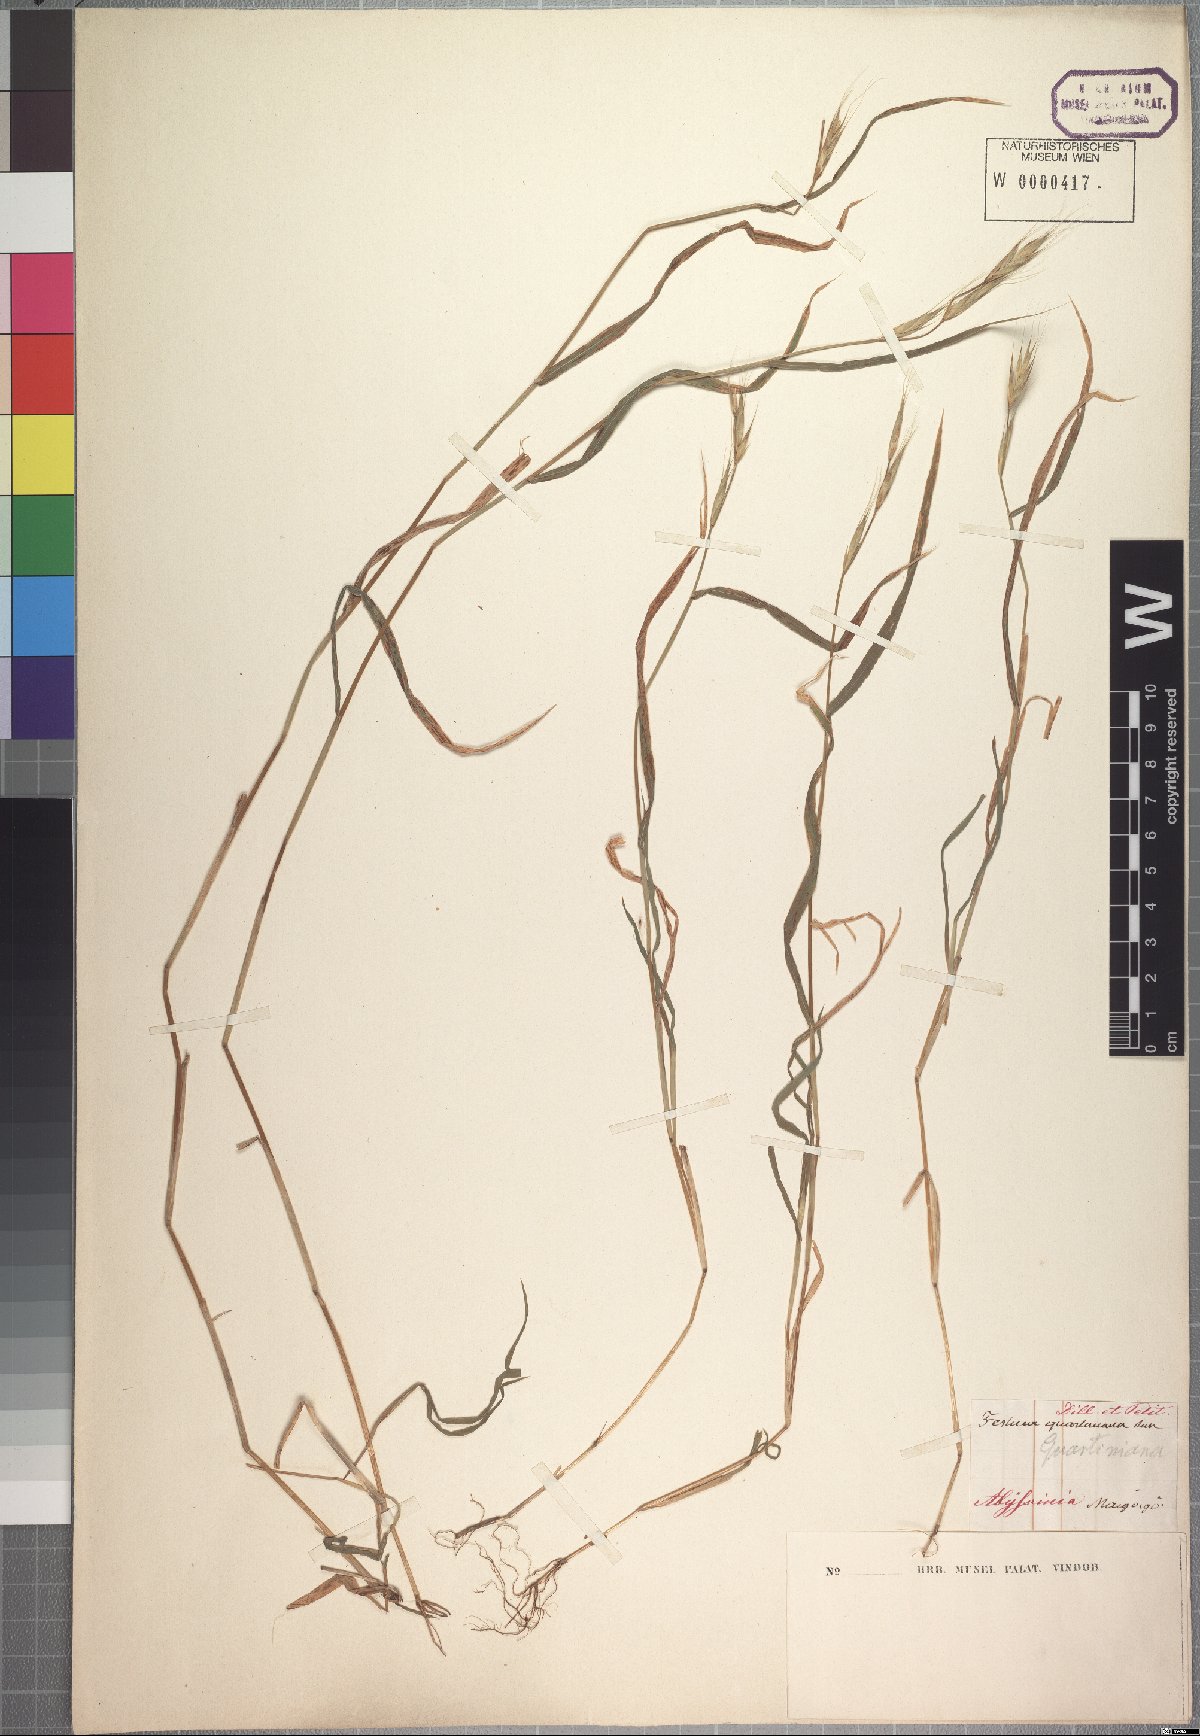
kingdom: Plantae
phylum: Tracheophyta
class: Liliopsida
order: Poales
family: Poaceae
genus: Brachypodium
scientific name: Brachypodium flexum
